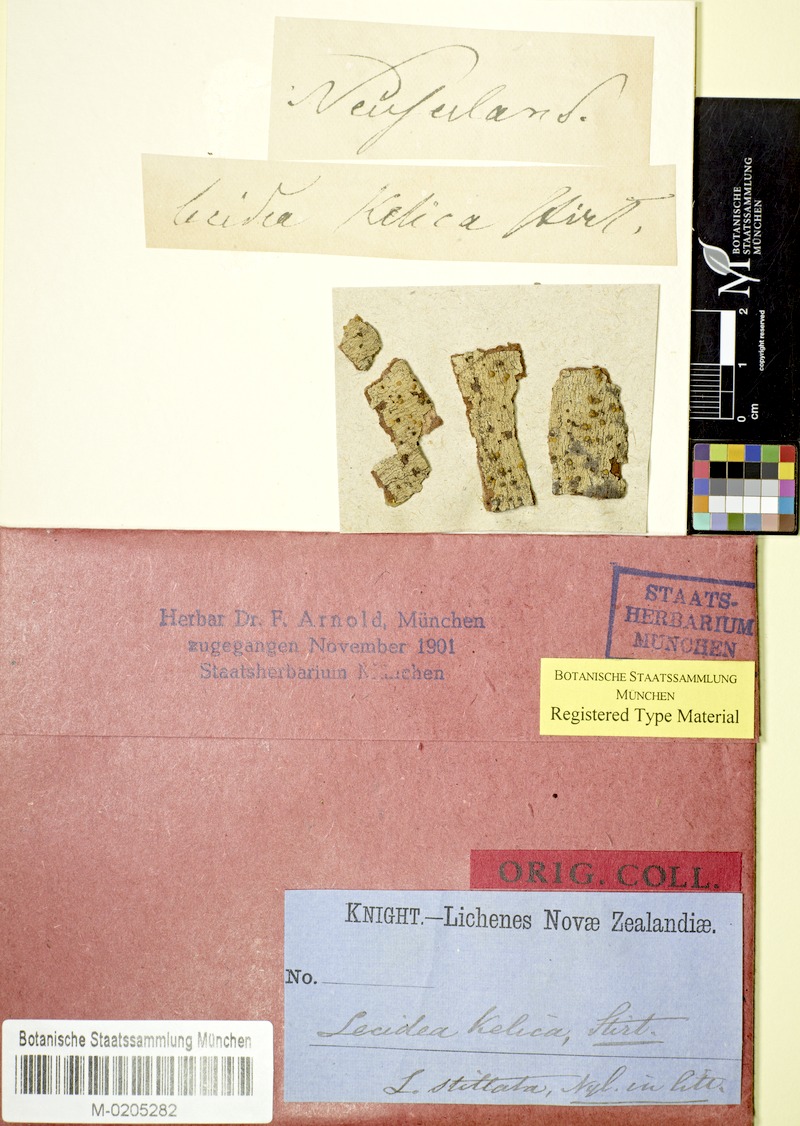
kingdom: Fungi
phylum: Ascomycota
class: Lecanoromycetes
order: Lecanorales
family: Ramalinaceae
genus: Stirtoniella
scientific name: Stirtoniella kelica
